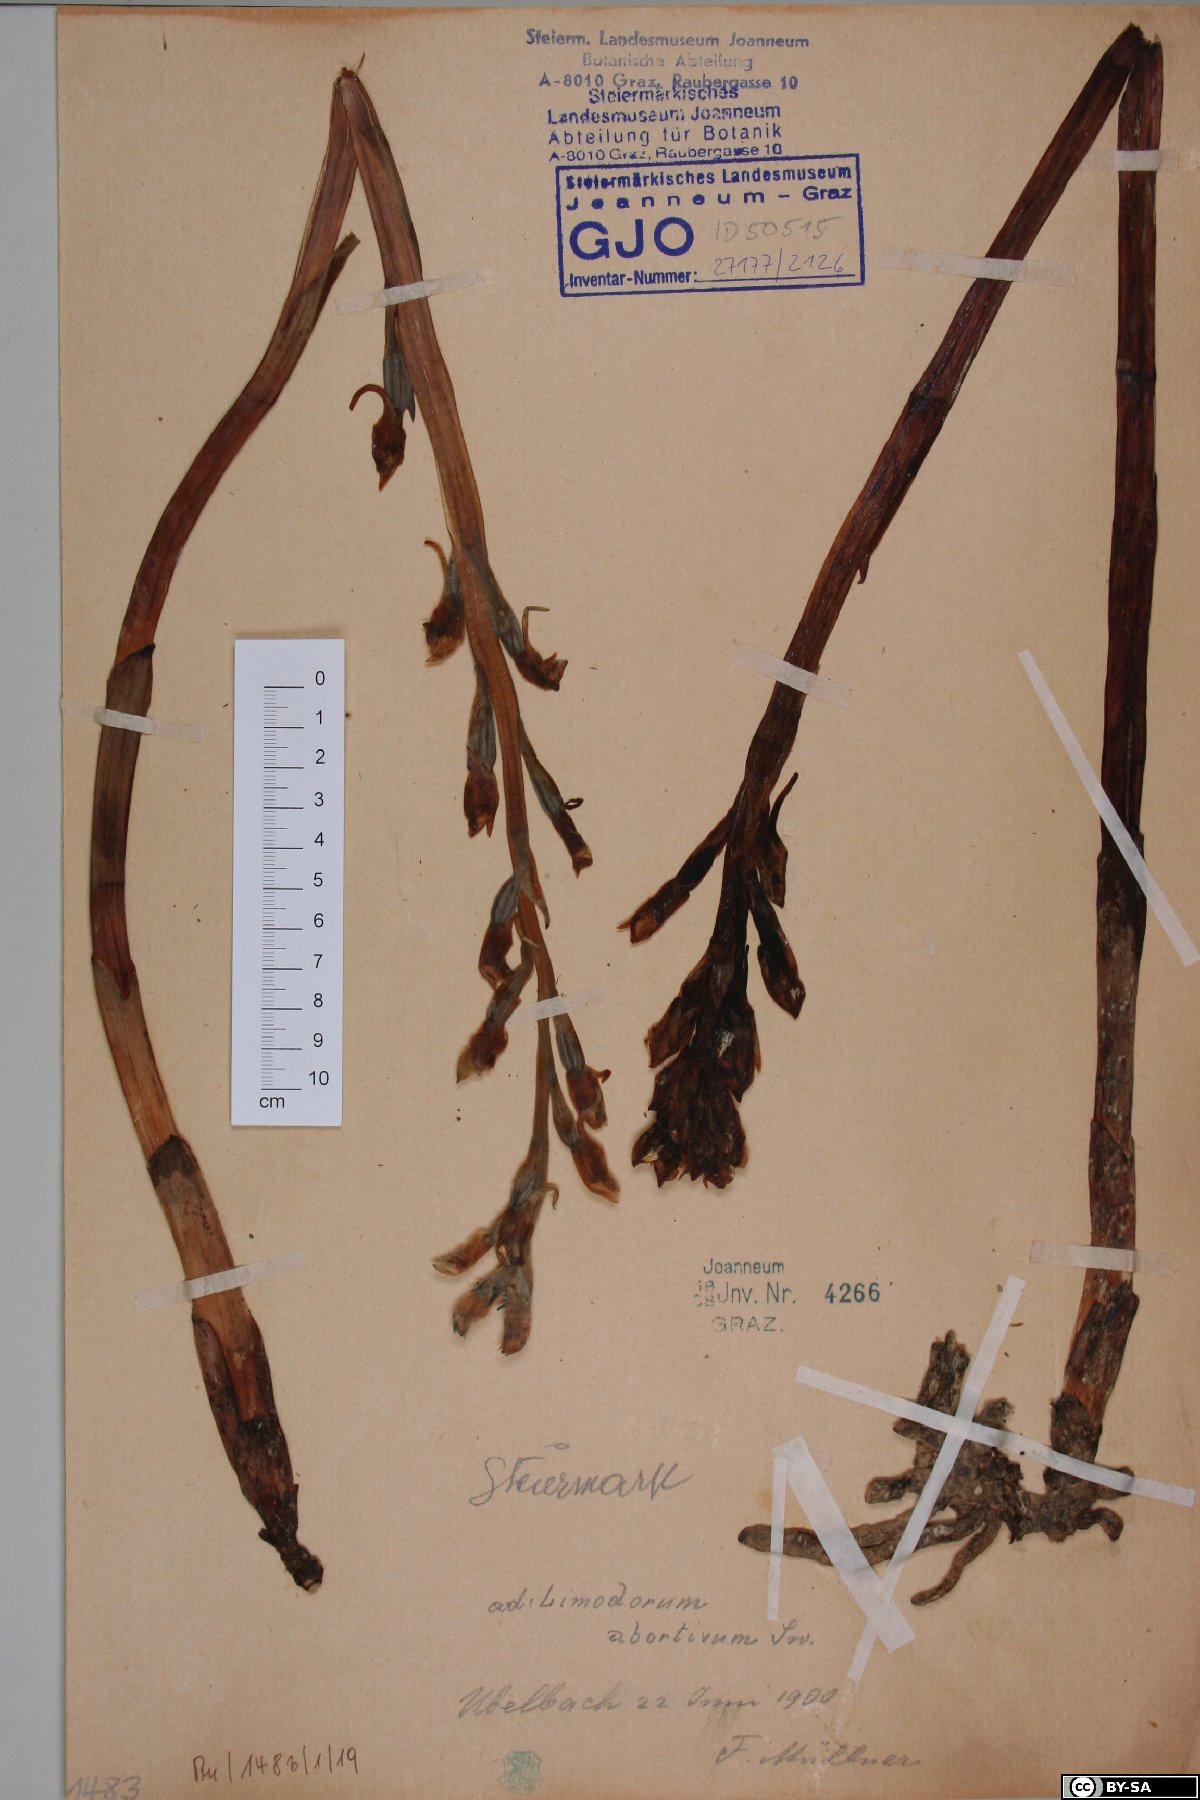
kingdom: Plantae
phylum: Tracheophyta
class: Liliopsida
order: Asparagales
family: Orchidaceae
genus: Limodorum
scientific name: Limodorum abortivum
